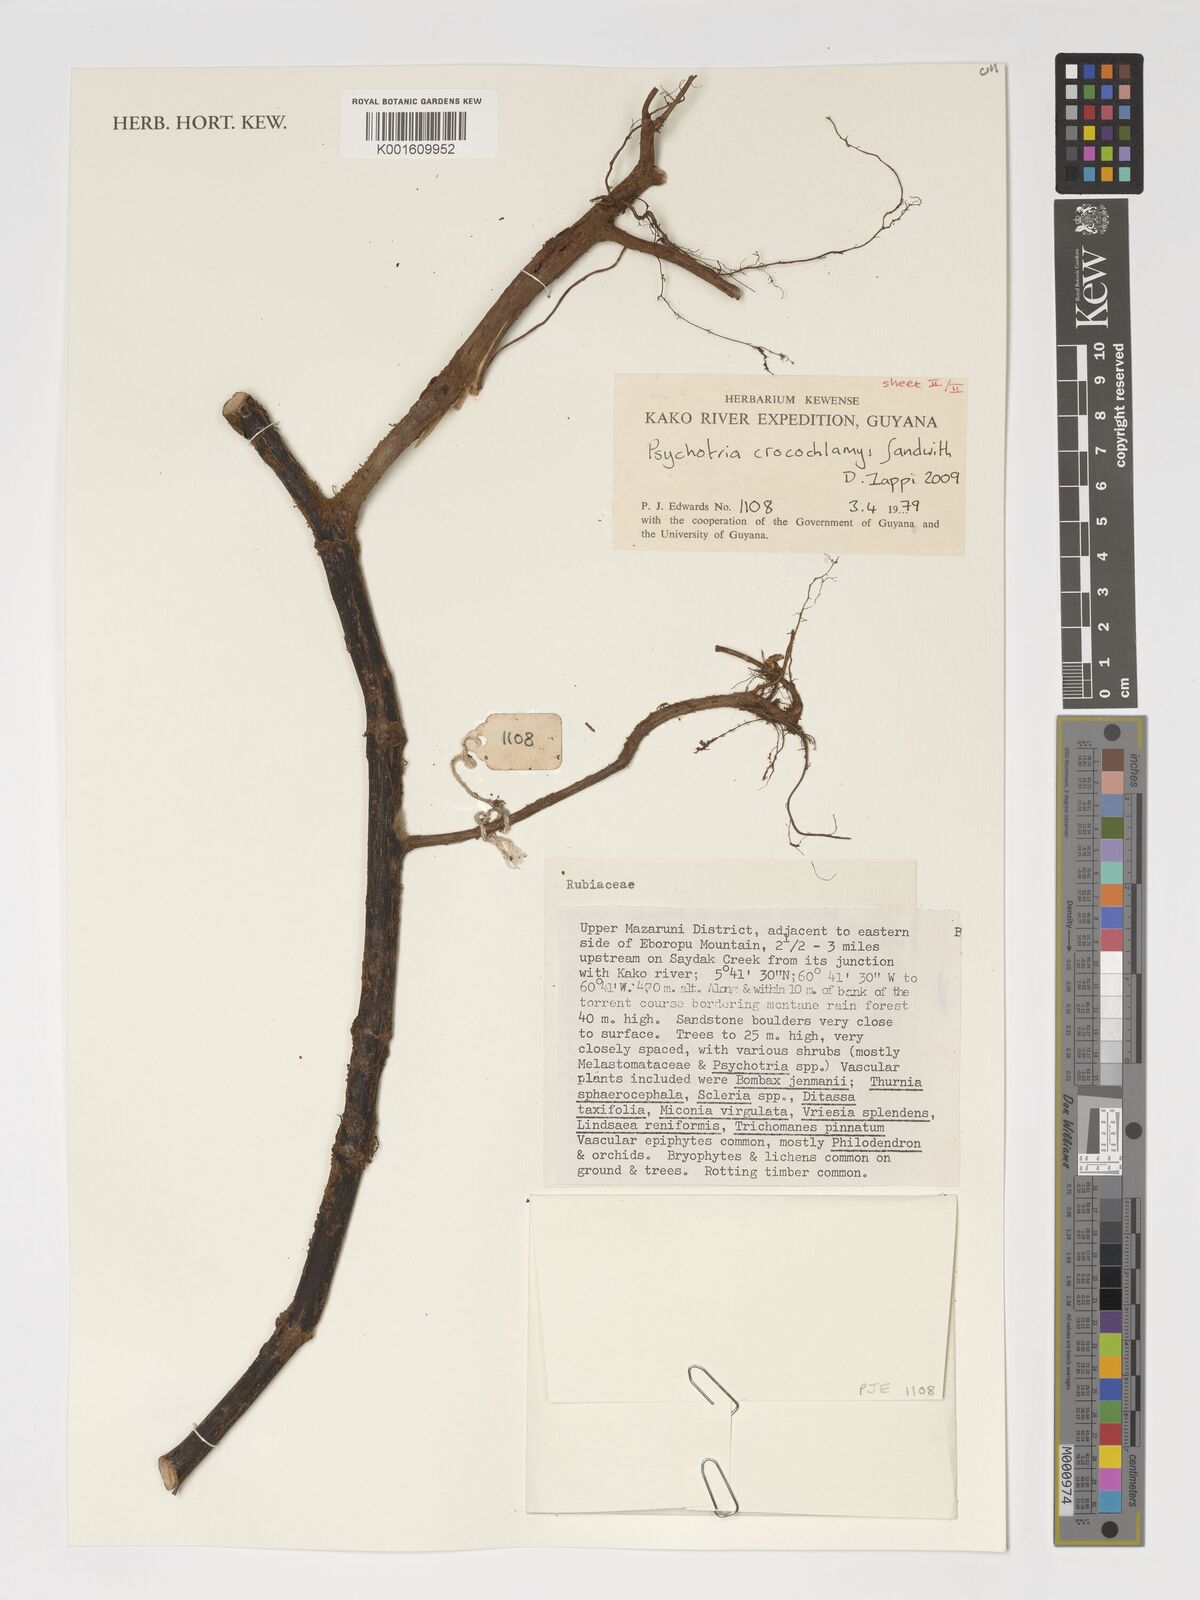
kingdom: Plantae
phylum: Tracheophyta
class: Magnoliopsida
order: Gentianales
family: Rubiaceae
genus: Palicourea
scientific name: Palicourea crocochlamys
